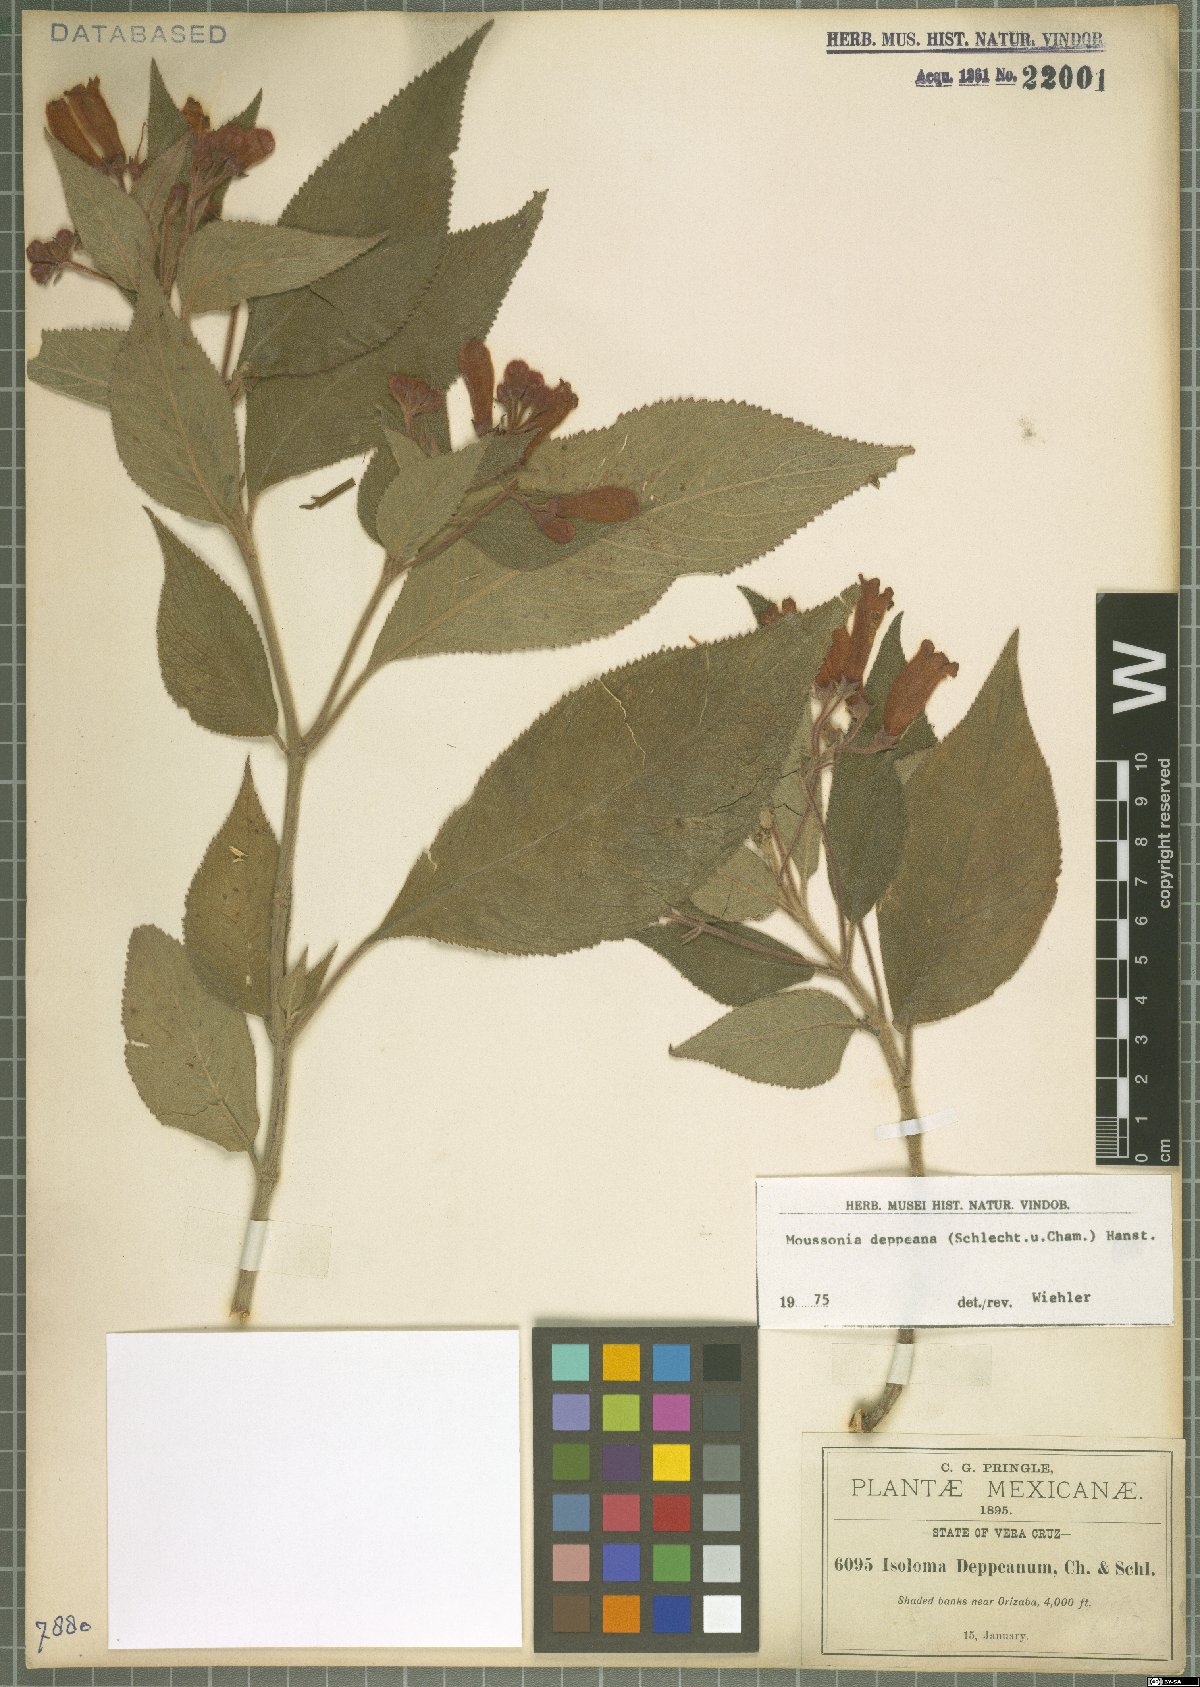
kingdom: Plantae
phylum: Tracheophyta
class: Magnoliopsida
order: Lamiales
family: Gesneriaceae
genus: Moussonia
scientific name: Moussonia deppeana
